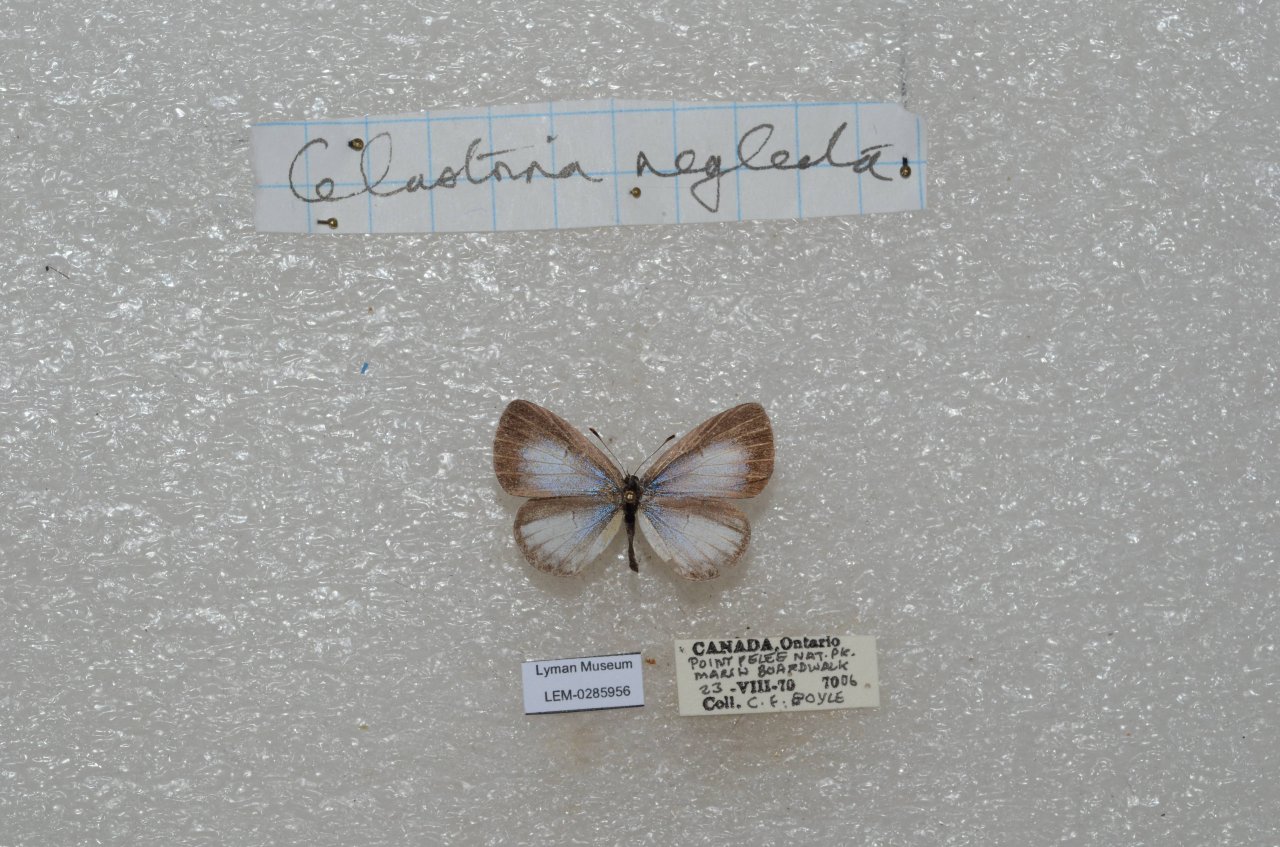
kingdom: Animalia
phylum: Arthropoda
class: Insecta
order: Lepidoptera
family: Lycaenidae
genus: Cyaniris
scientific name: Cyaniris neglecta
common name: Summer Azure
